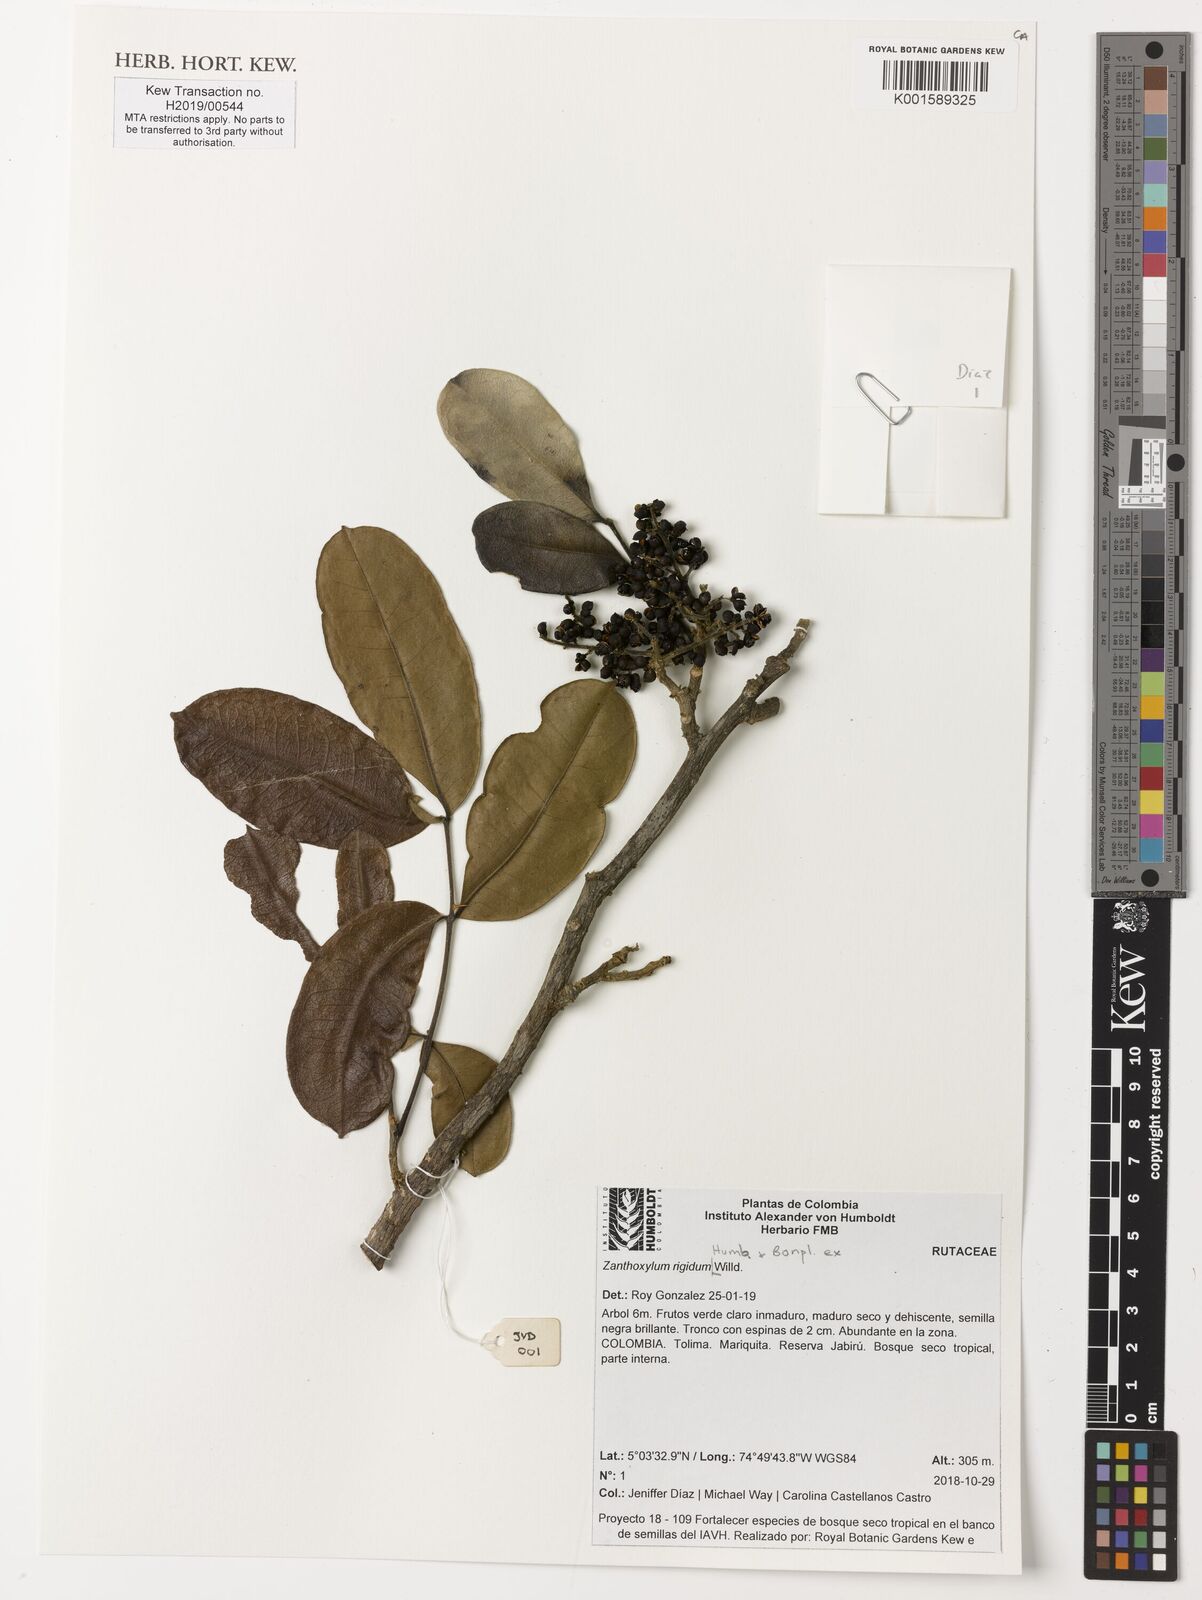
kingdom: Plantae
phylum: Tracheophyta
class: Magnoliopsida
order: Sapindales
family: Rutaceae
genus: Zanthoxylum
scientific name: Zanthoxylum rigidum
